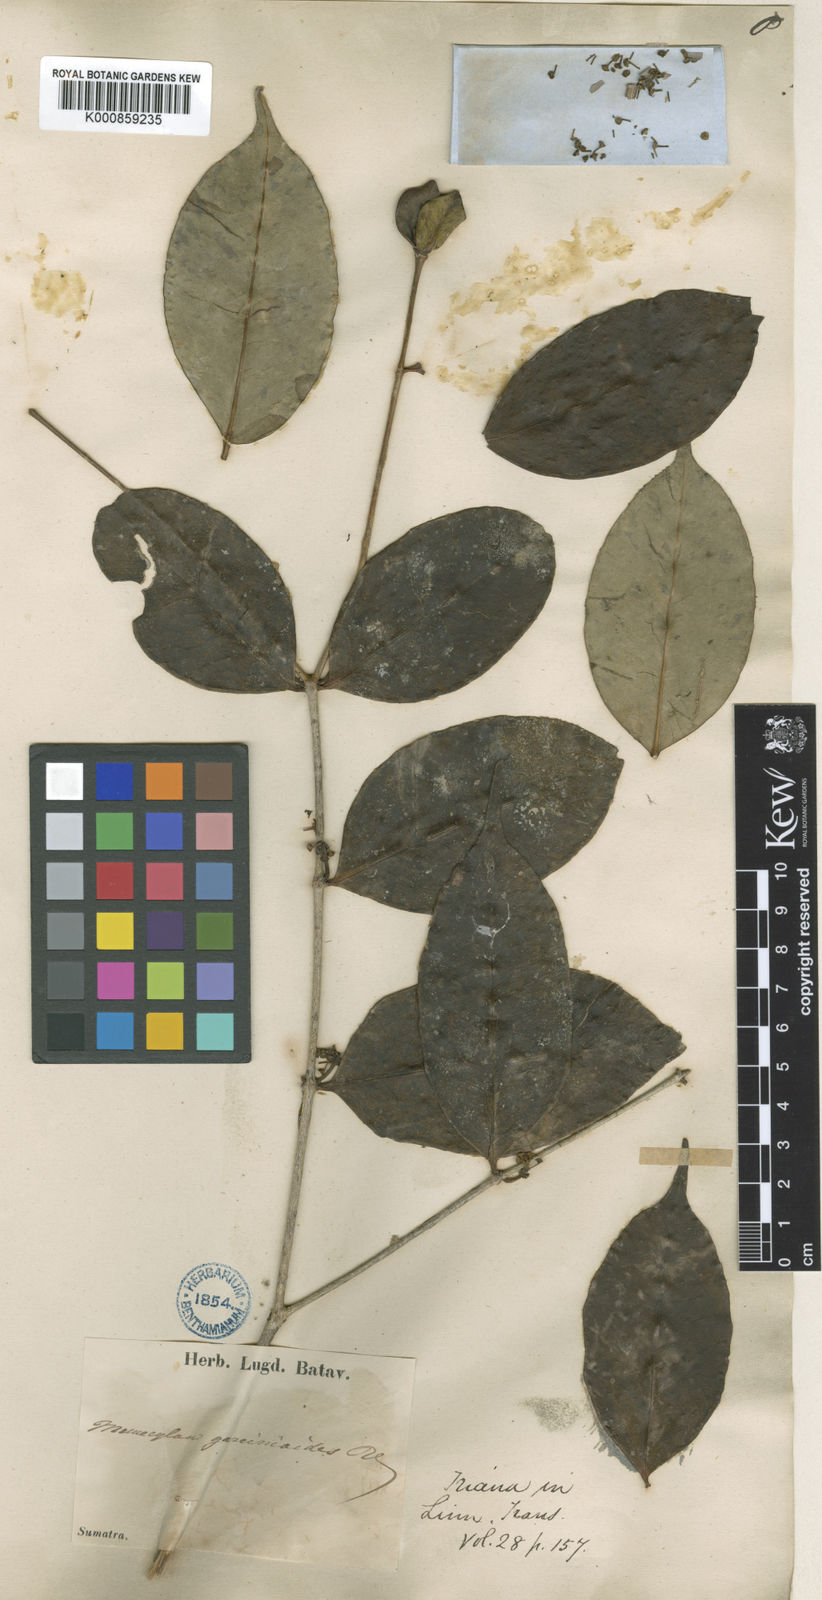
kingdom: Plantae
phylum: Tracheophyta
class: Magnoliopsida
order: Myrtales
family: Melastomataceae
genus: Memecylon
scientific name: Memecylon garcinioides
